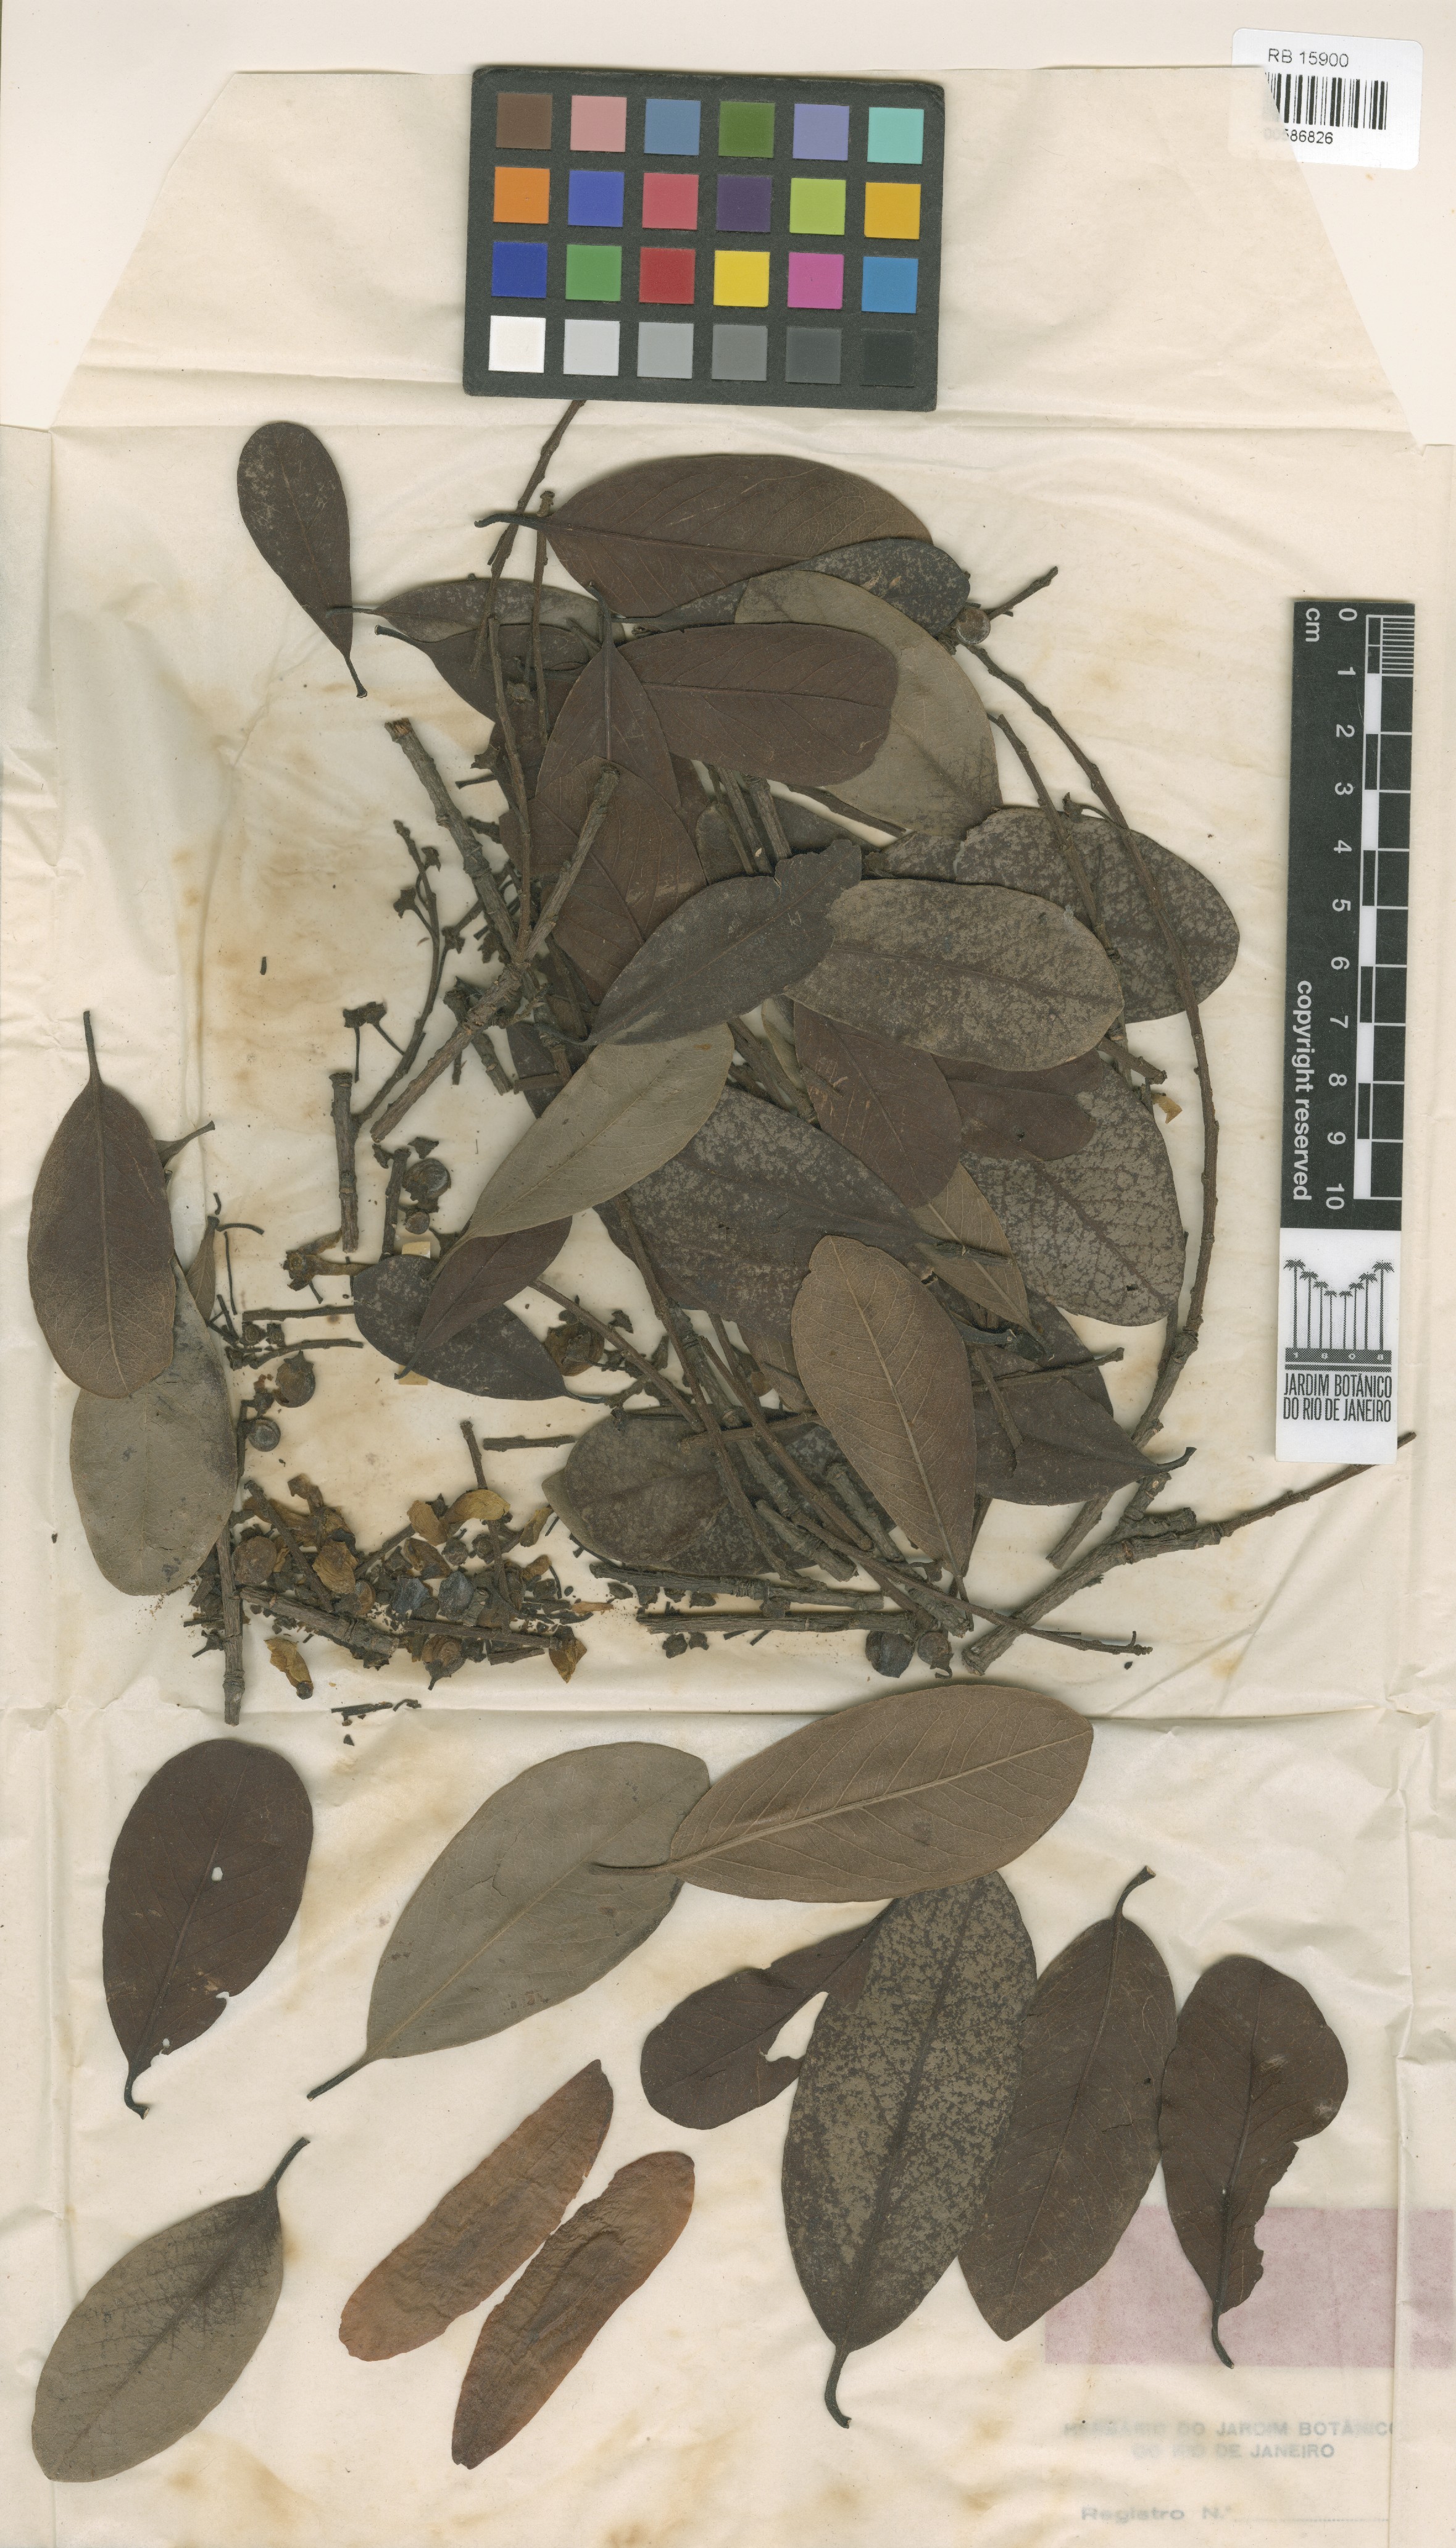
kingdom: Plantae
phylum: Tracheophyta
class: Magnoliopsida
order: Ericales
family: Lecythidaceae
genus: Couratari
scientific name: Couratari oblongifolia
